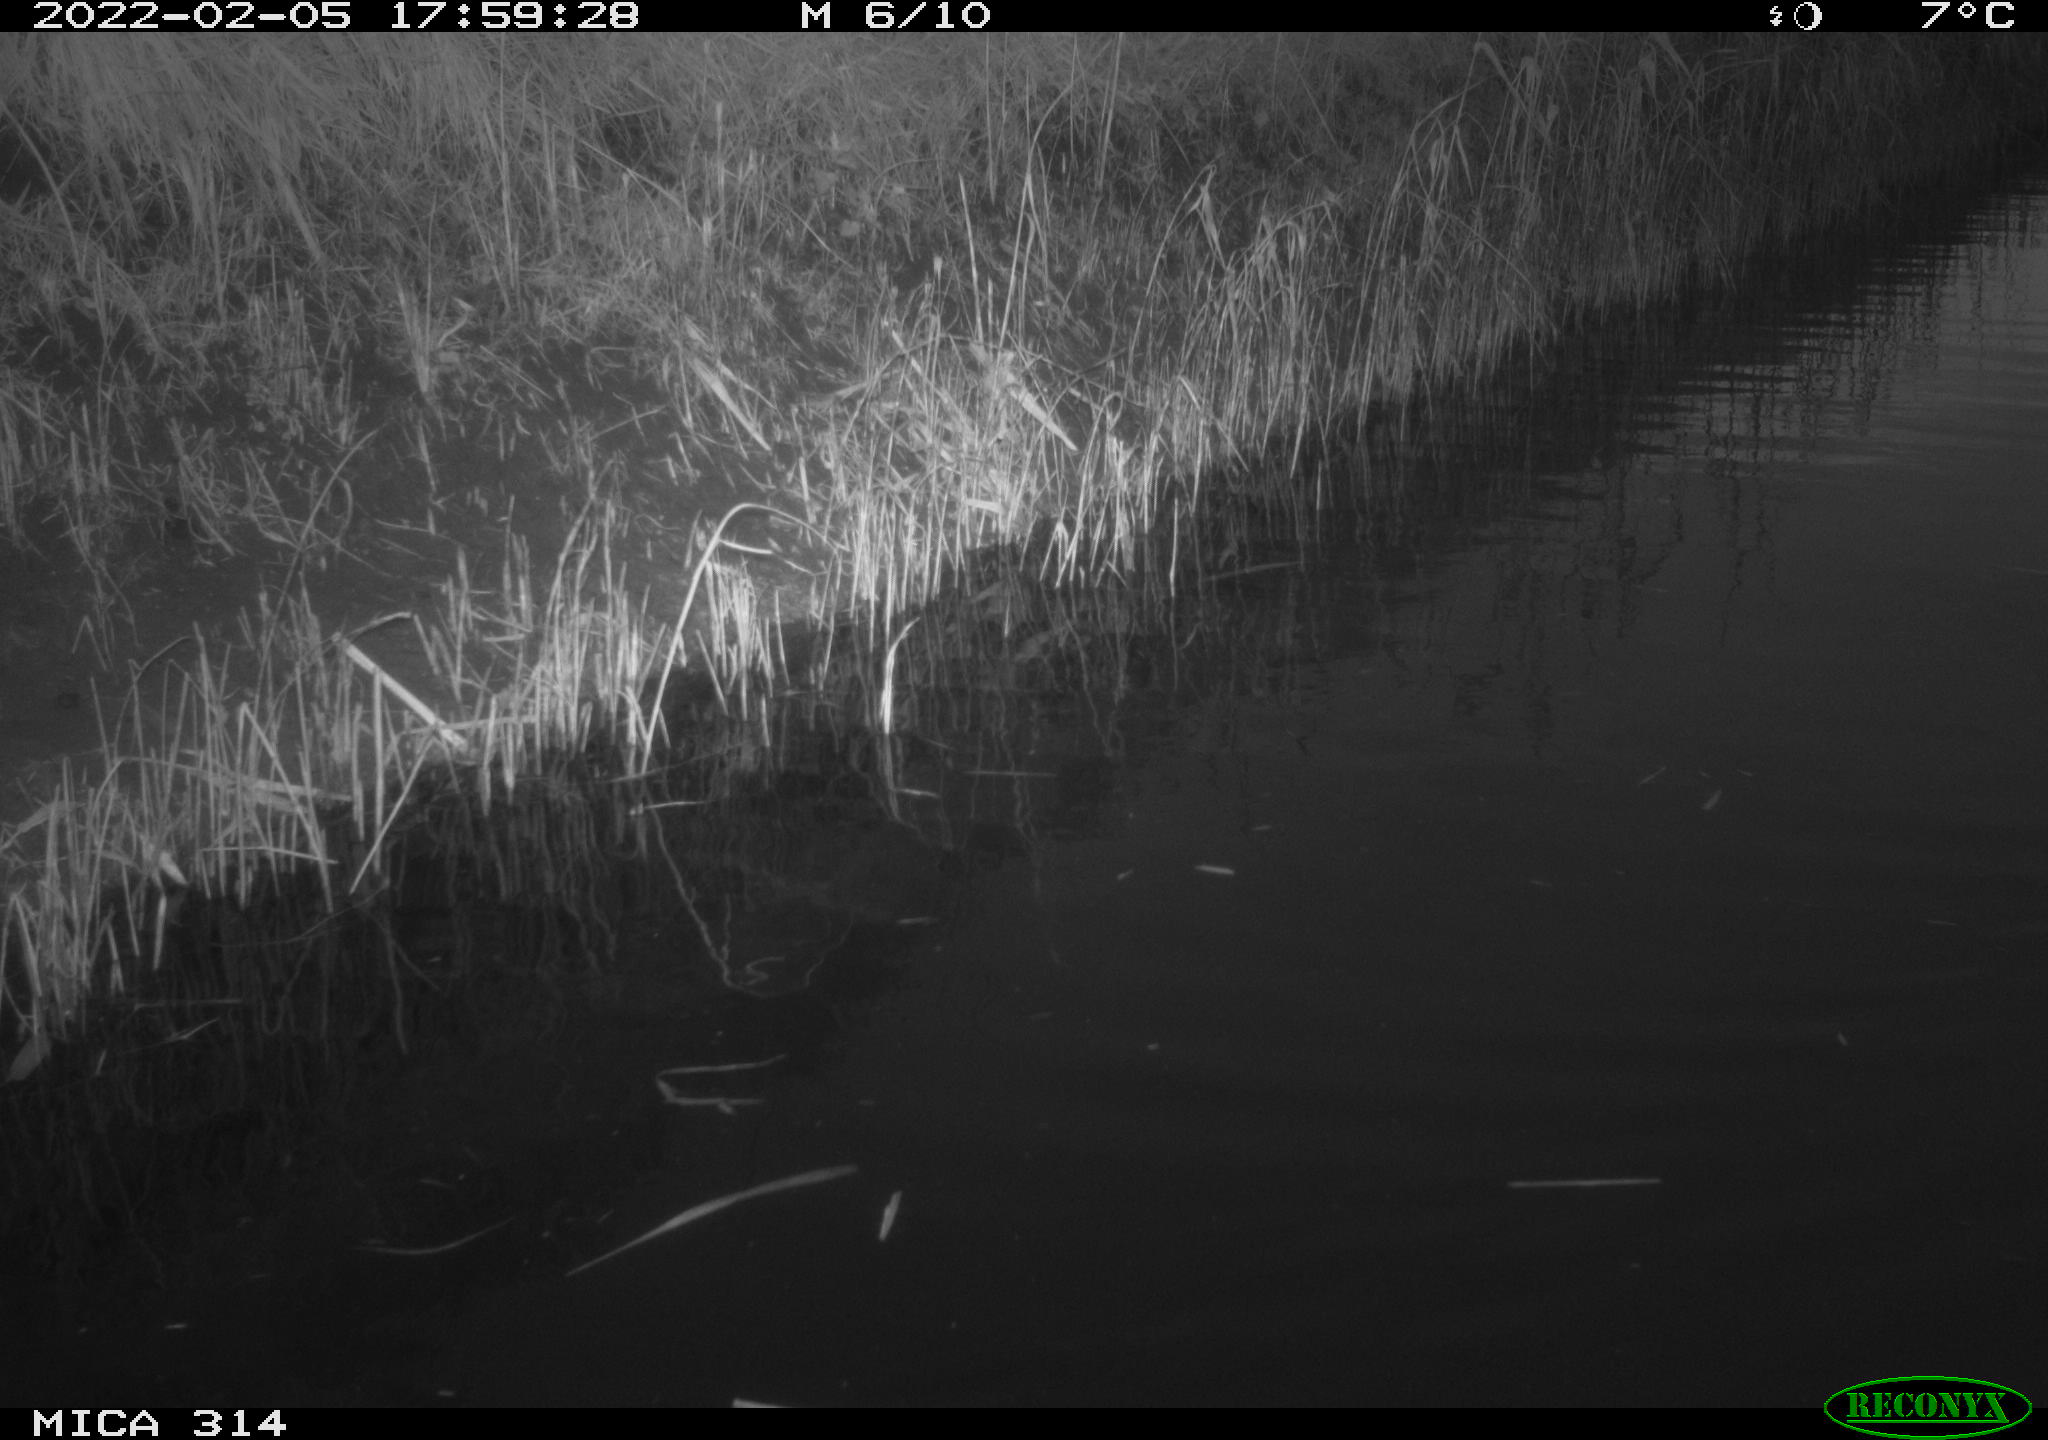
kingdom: Animalia
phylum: Chordata
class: Aves
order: Gruiformes
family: Rallidae
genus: Gallinula
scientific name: Gallinula chloropus
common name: Common moorhen
